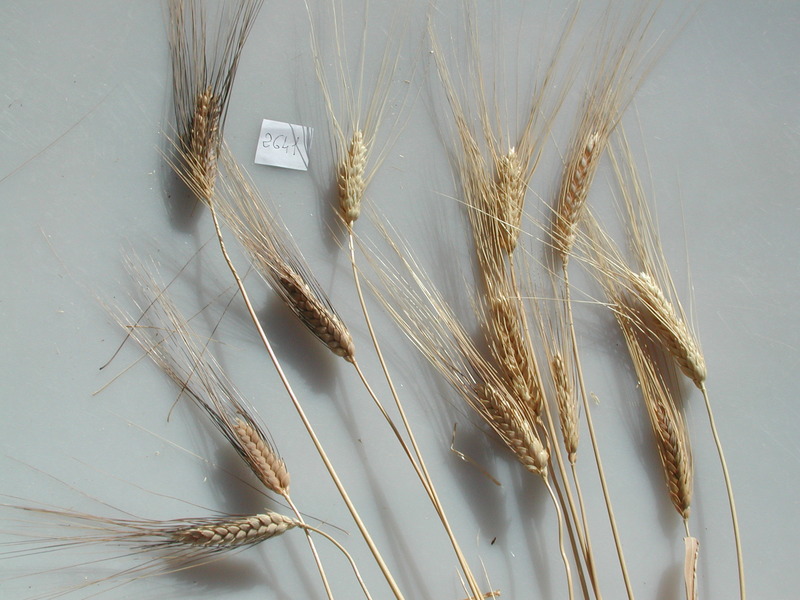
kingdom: Plantae
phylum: Tracheophyta
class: Liliopsida
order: Poales
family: Poaceae
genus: Triticum
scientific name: Triticum turgidum
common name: Wheat
